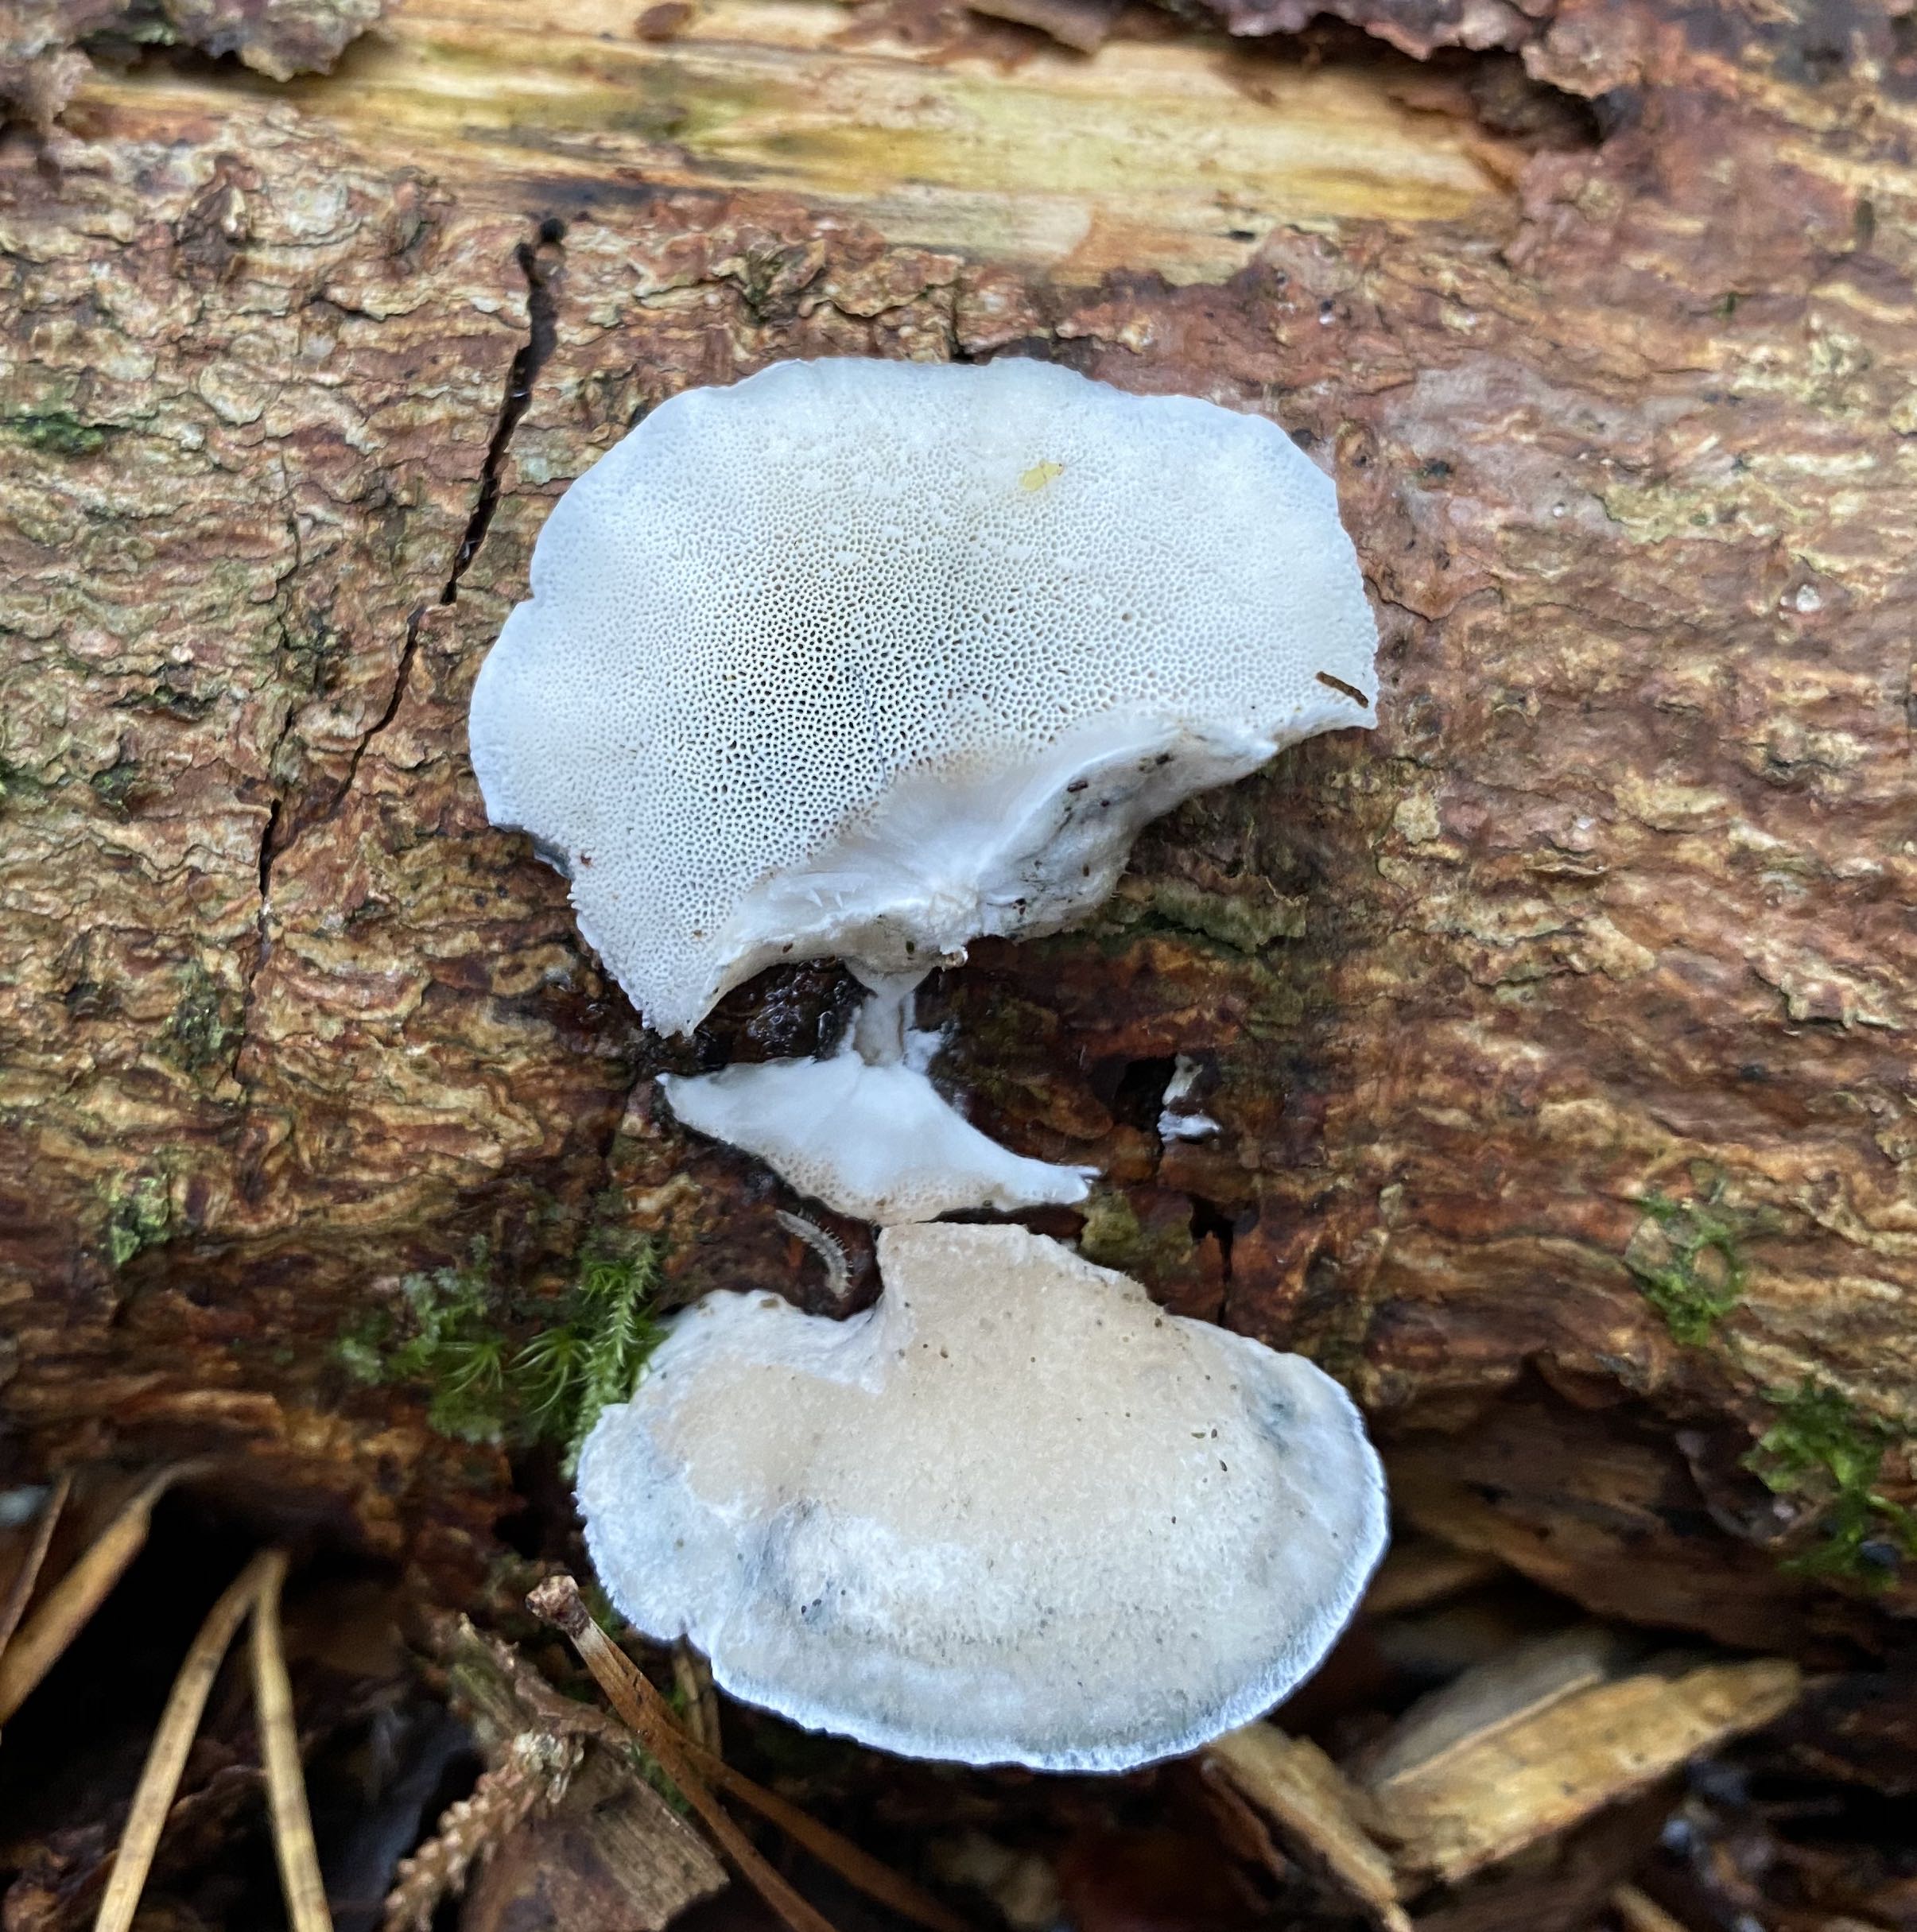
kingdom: Fungi
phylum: Basidiomycota
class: Agaricomycetes
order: Polyporales
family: Polyporaceae
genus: Cyanosporus
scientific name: Cyanosporus caesius
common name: blålig kødporesvamp
